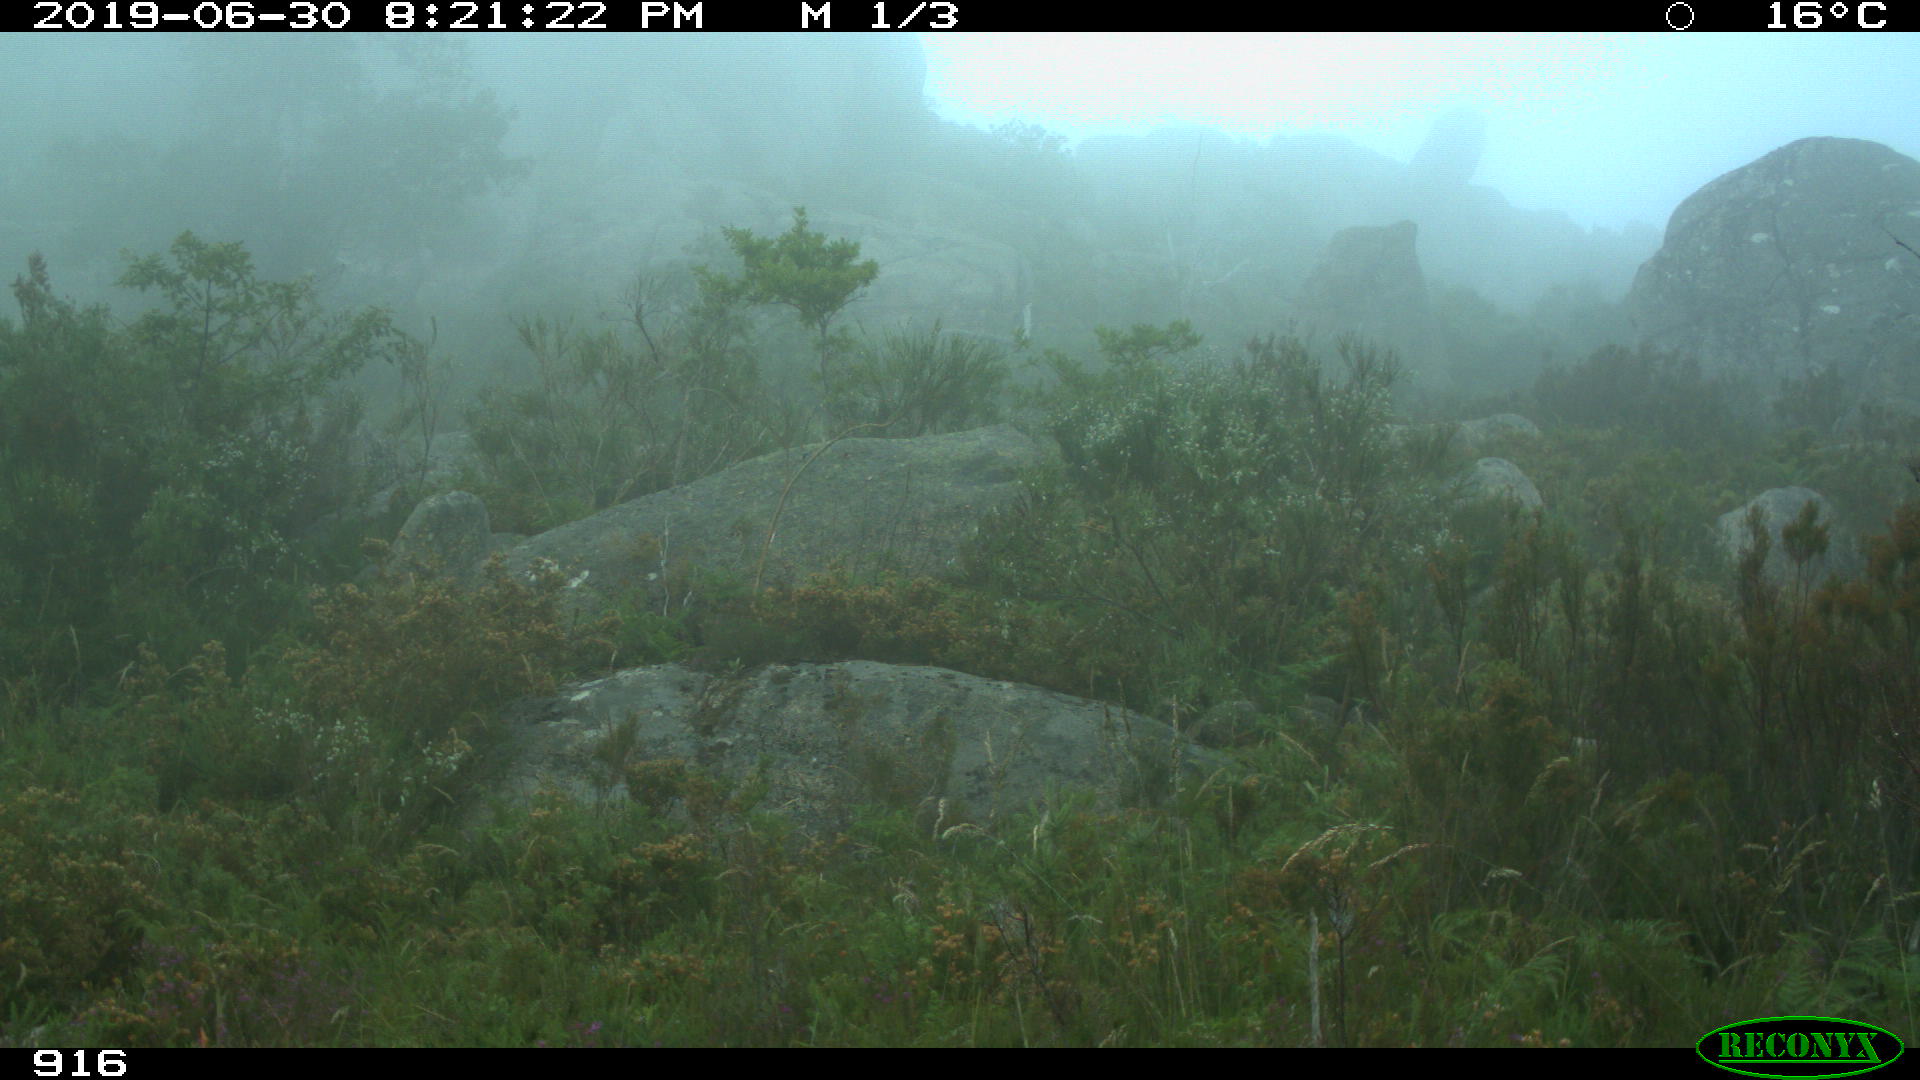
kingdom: Animalia
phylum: Chordata
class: Mammalia
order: Artiodactyla
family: Bovidae
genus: Bos
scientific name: Bos taurus
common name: Domesticated cattle
